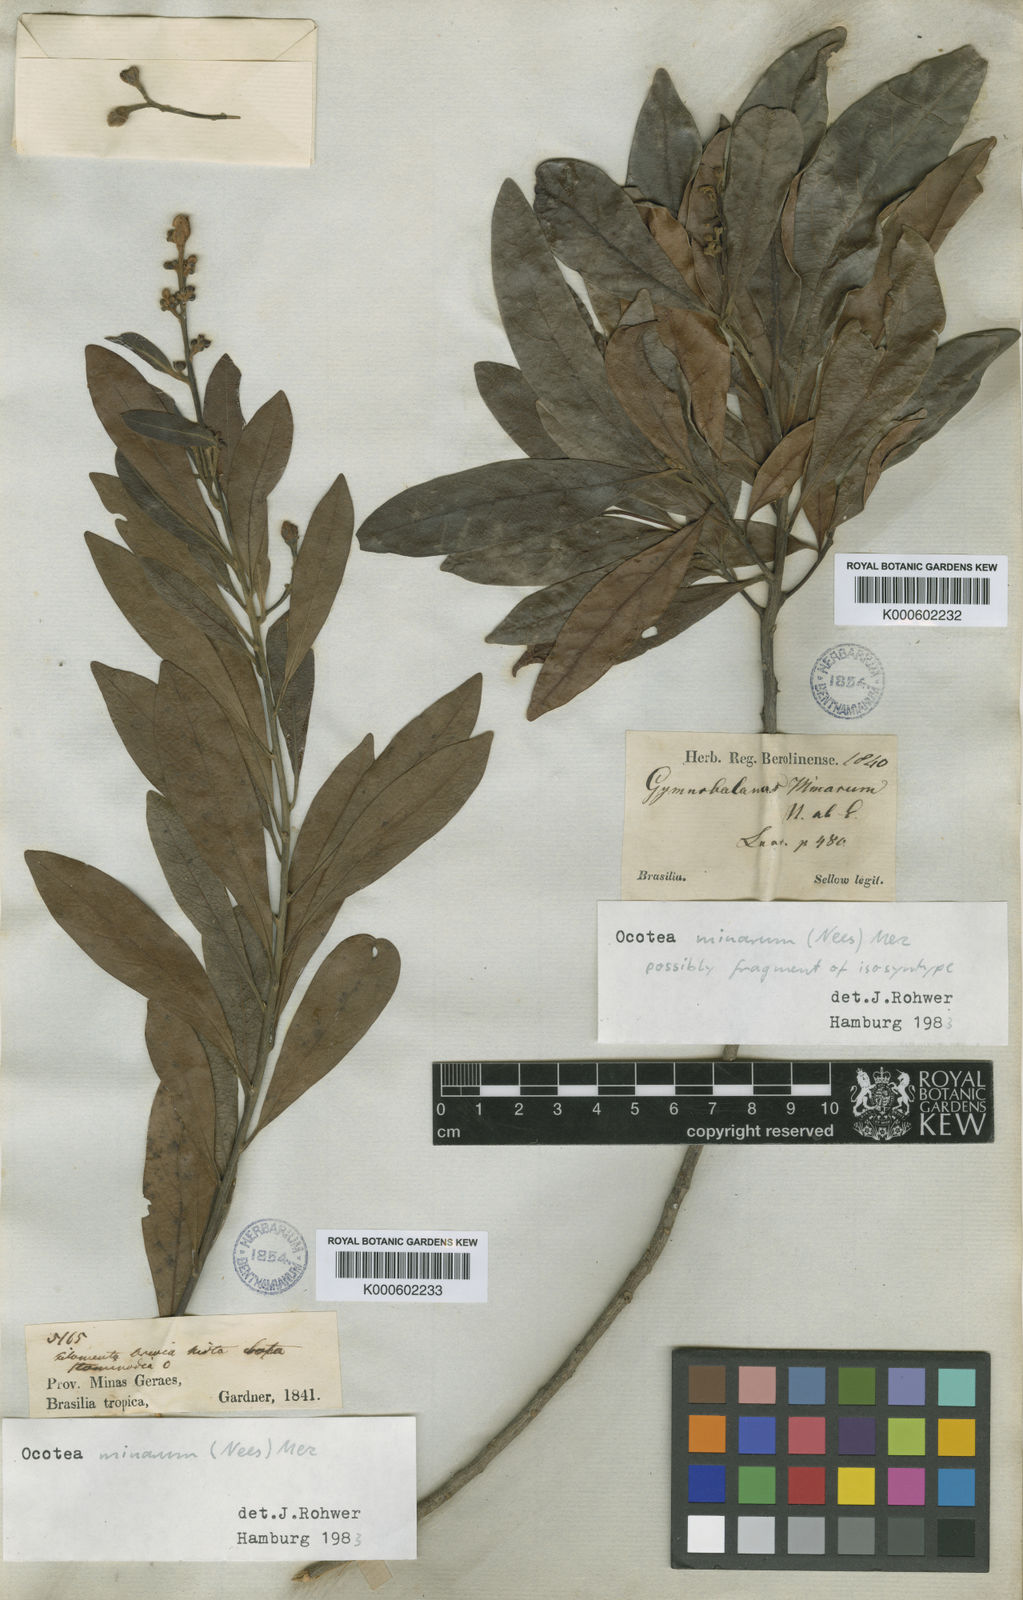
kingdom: Plantae
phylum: Tracheophyta
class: Magnoliopsida
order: Laurales
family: Lauraceae
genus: Ocotea
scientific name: Ocotea minarum
